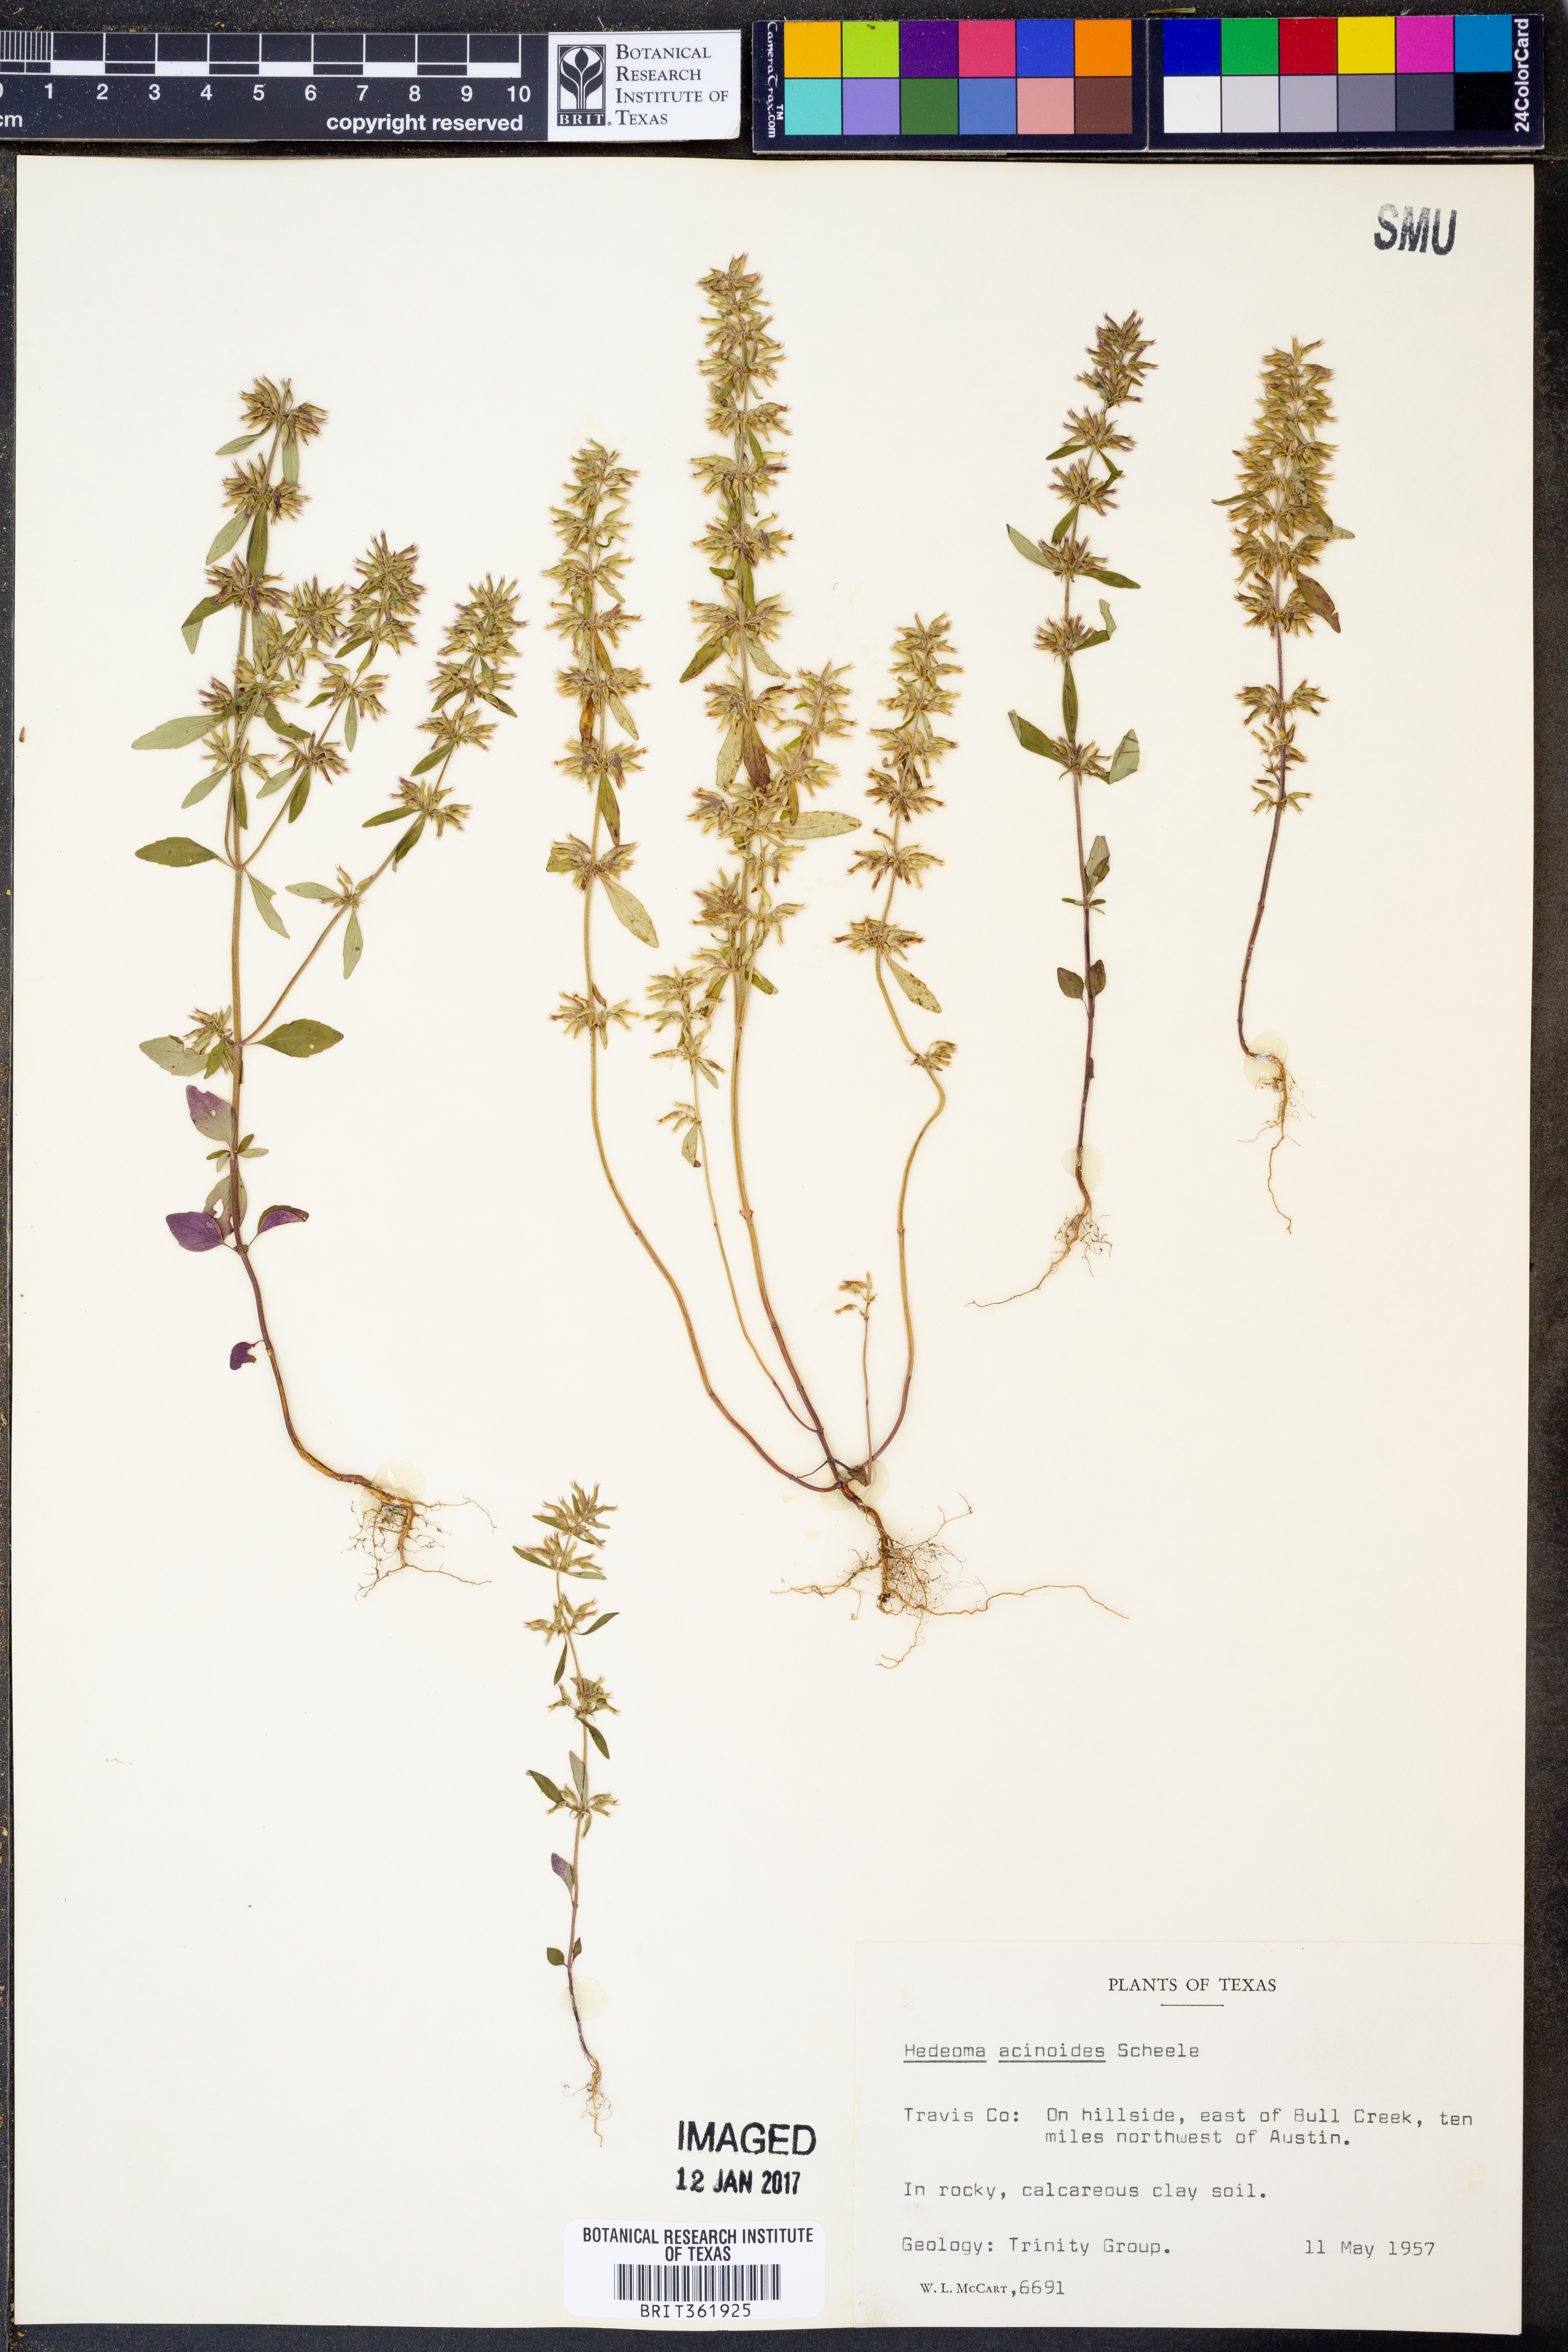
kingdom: Plantae
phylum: Tracheophyta
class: Magnoliopsida
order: Lamiales
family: Lamiaceae
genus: Hedeoma
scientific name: Hedeoma acinoides
